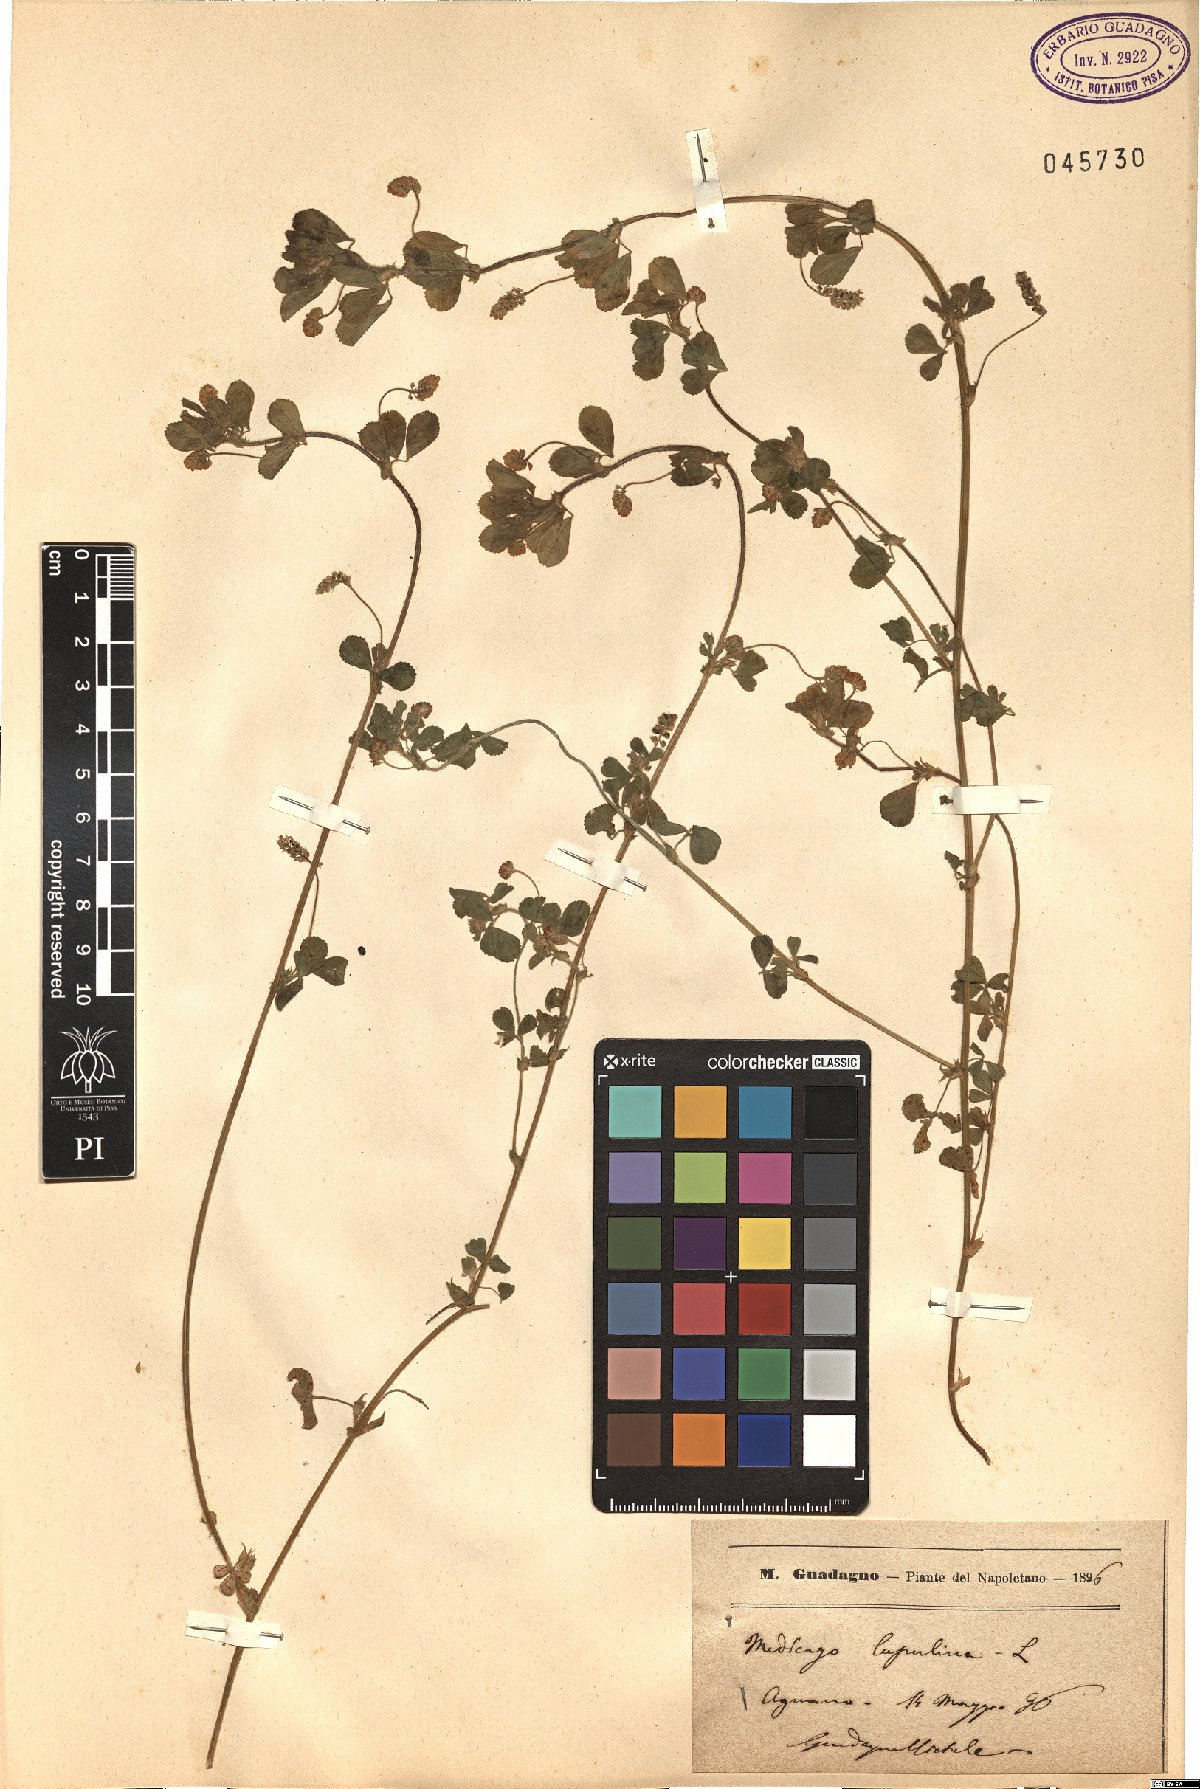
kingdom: Plantae
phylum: Tracheophyta
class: Magnoliopsida
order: Fabales
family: Fabaceae
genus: Medicago
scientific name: Medicago lupulina
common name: Black medick
